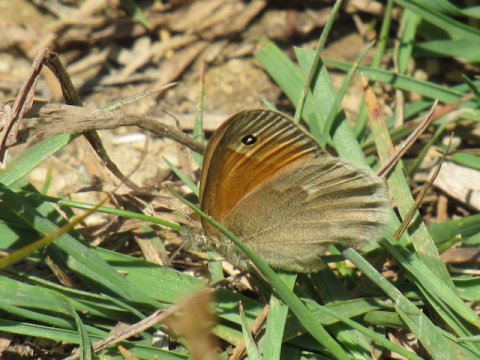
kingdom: Animalia
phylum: Arthropoda
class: Insecta
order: Lepidoptera
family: Nymphalidae
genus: Coenonympha
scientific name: Coenonympha tullia
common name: Large Heath
